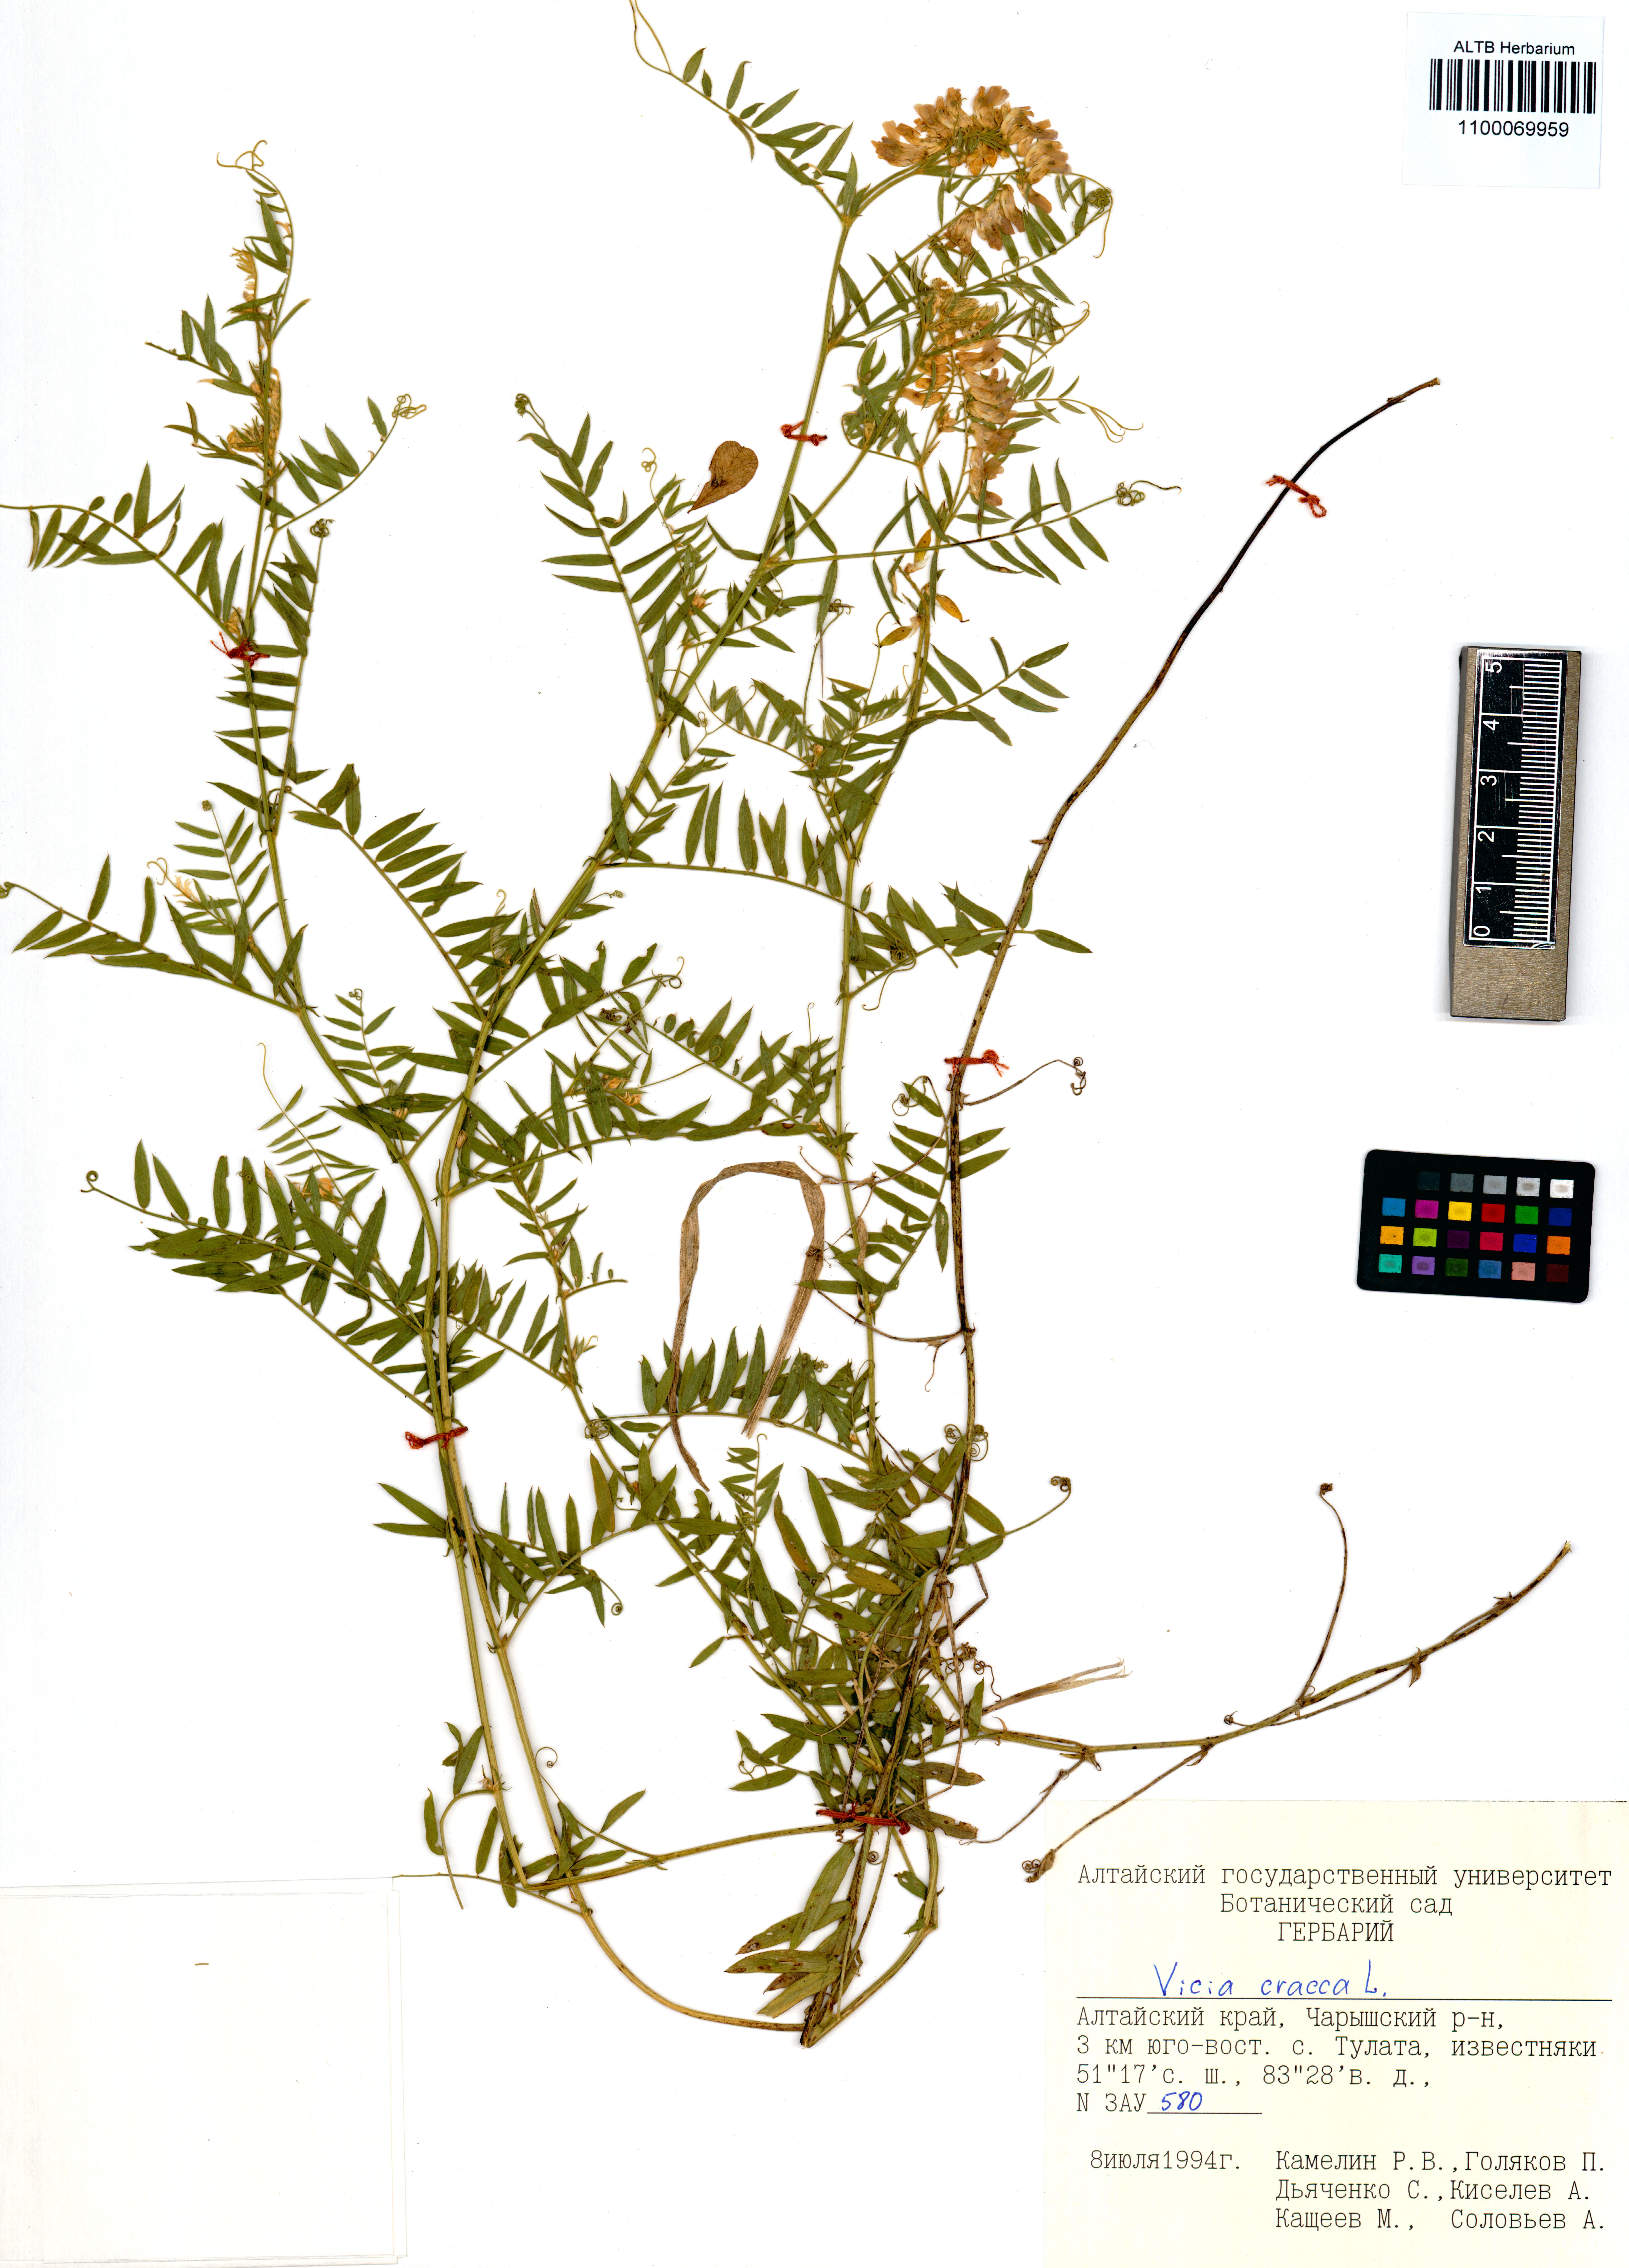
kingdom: Plantae
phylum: Tracheophyta
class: Magnoliopsida
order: Fabales
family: Fabaceae
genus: Vicia
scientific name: Vicia cracca
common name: Bird vetch
